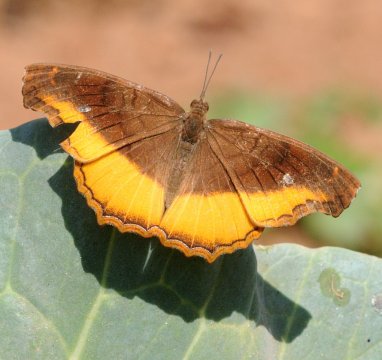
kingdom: Animalia
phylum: Arthropoda
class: Insecta
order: Lepidoptera
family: Nymphalidae
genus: Eurytela
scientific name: Eurytela dryope
